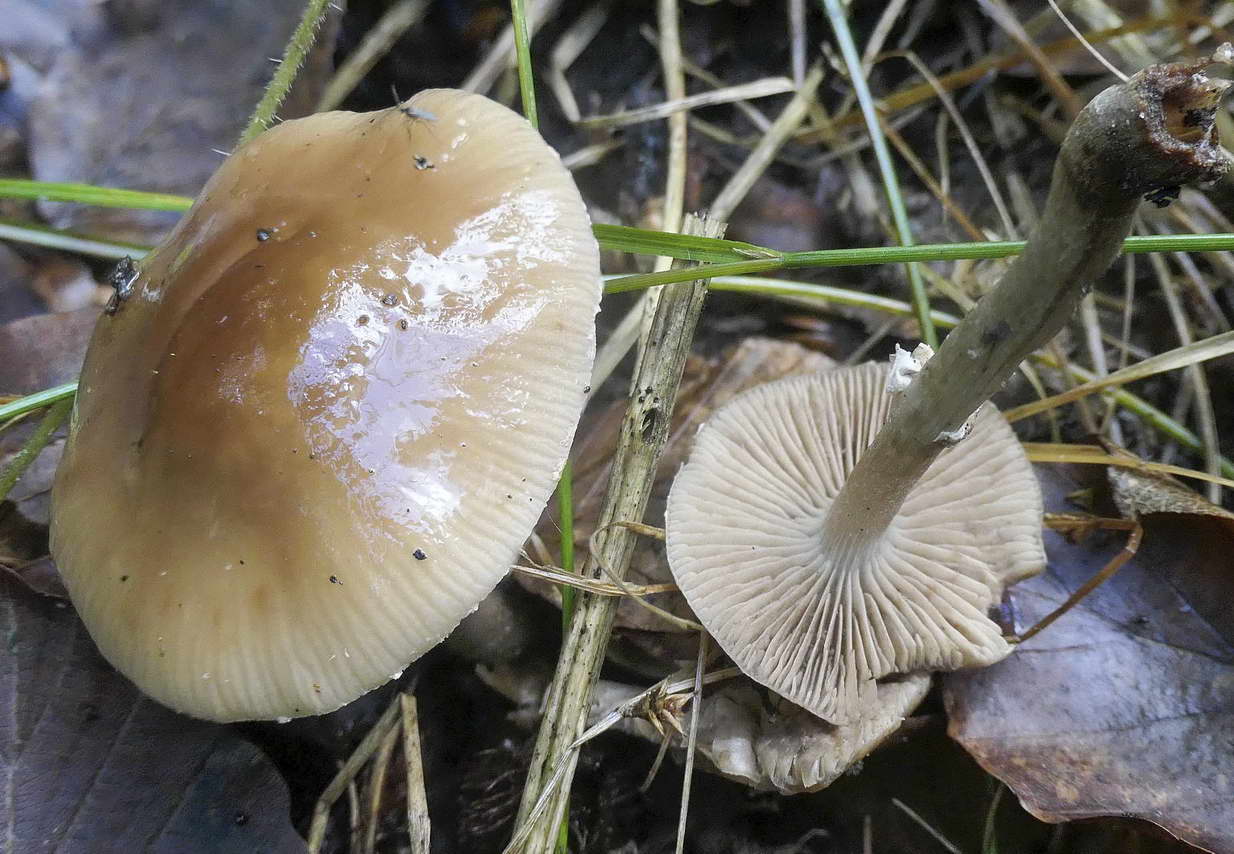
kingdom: Fungi
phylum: Basidiomycota
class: Agaricomycetes
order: Agaricales
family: Tubariaceae
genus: Cyclocybe
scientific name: Cyclocybe erebia
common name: mørk agerhat
